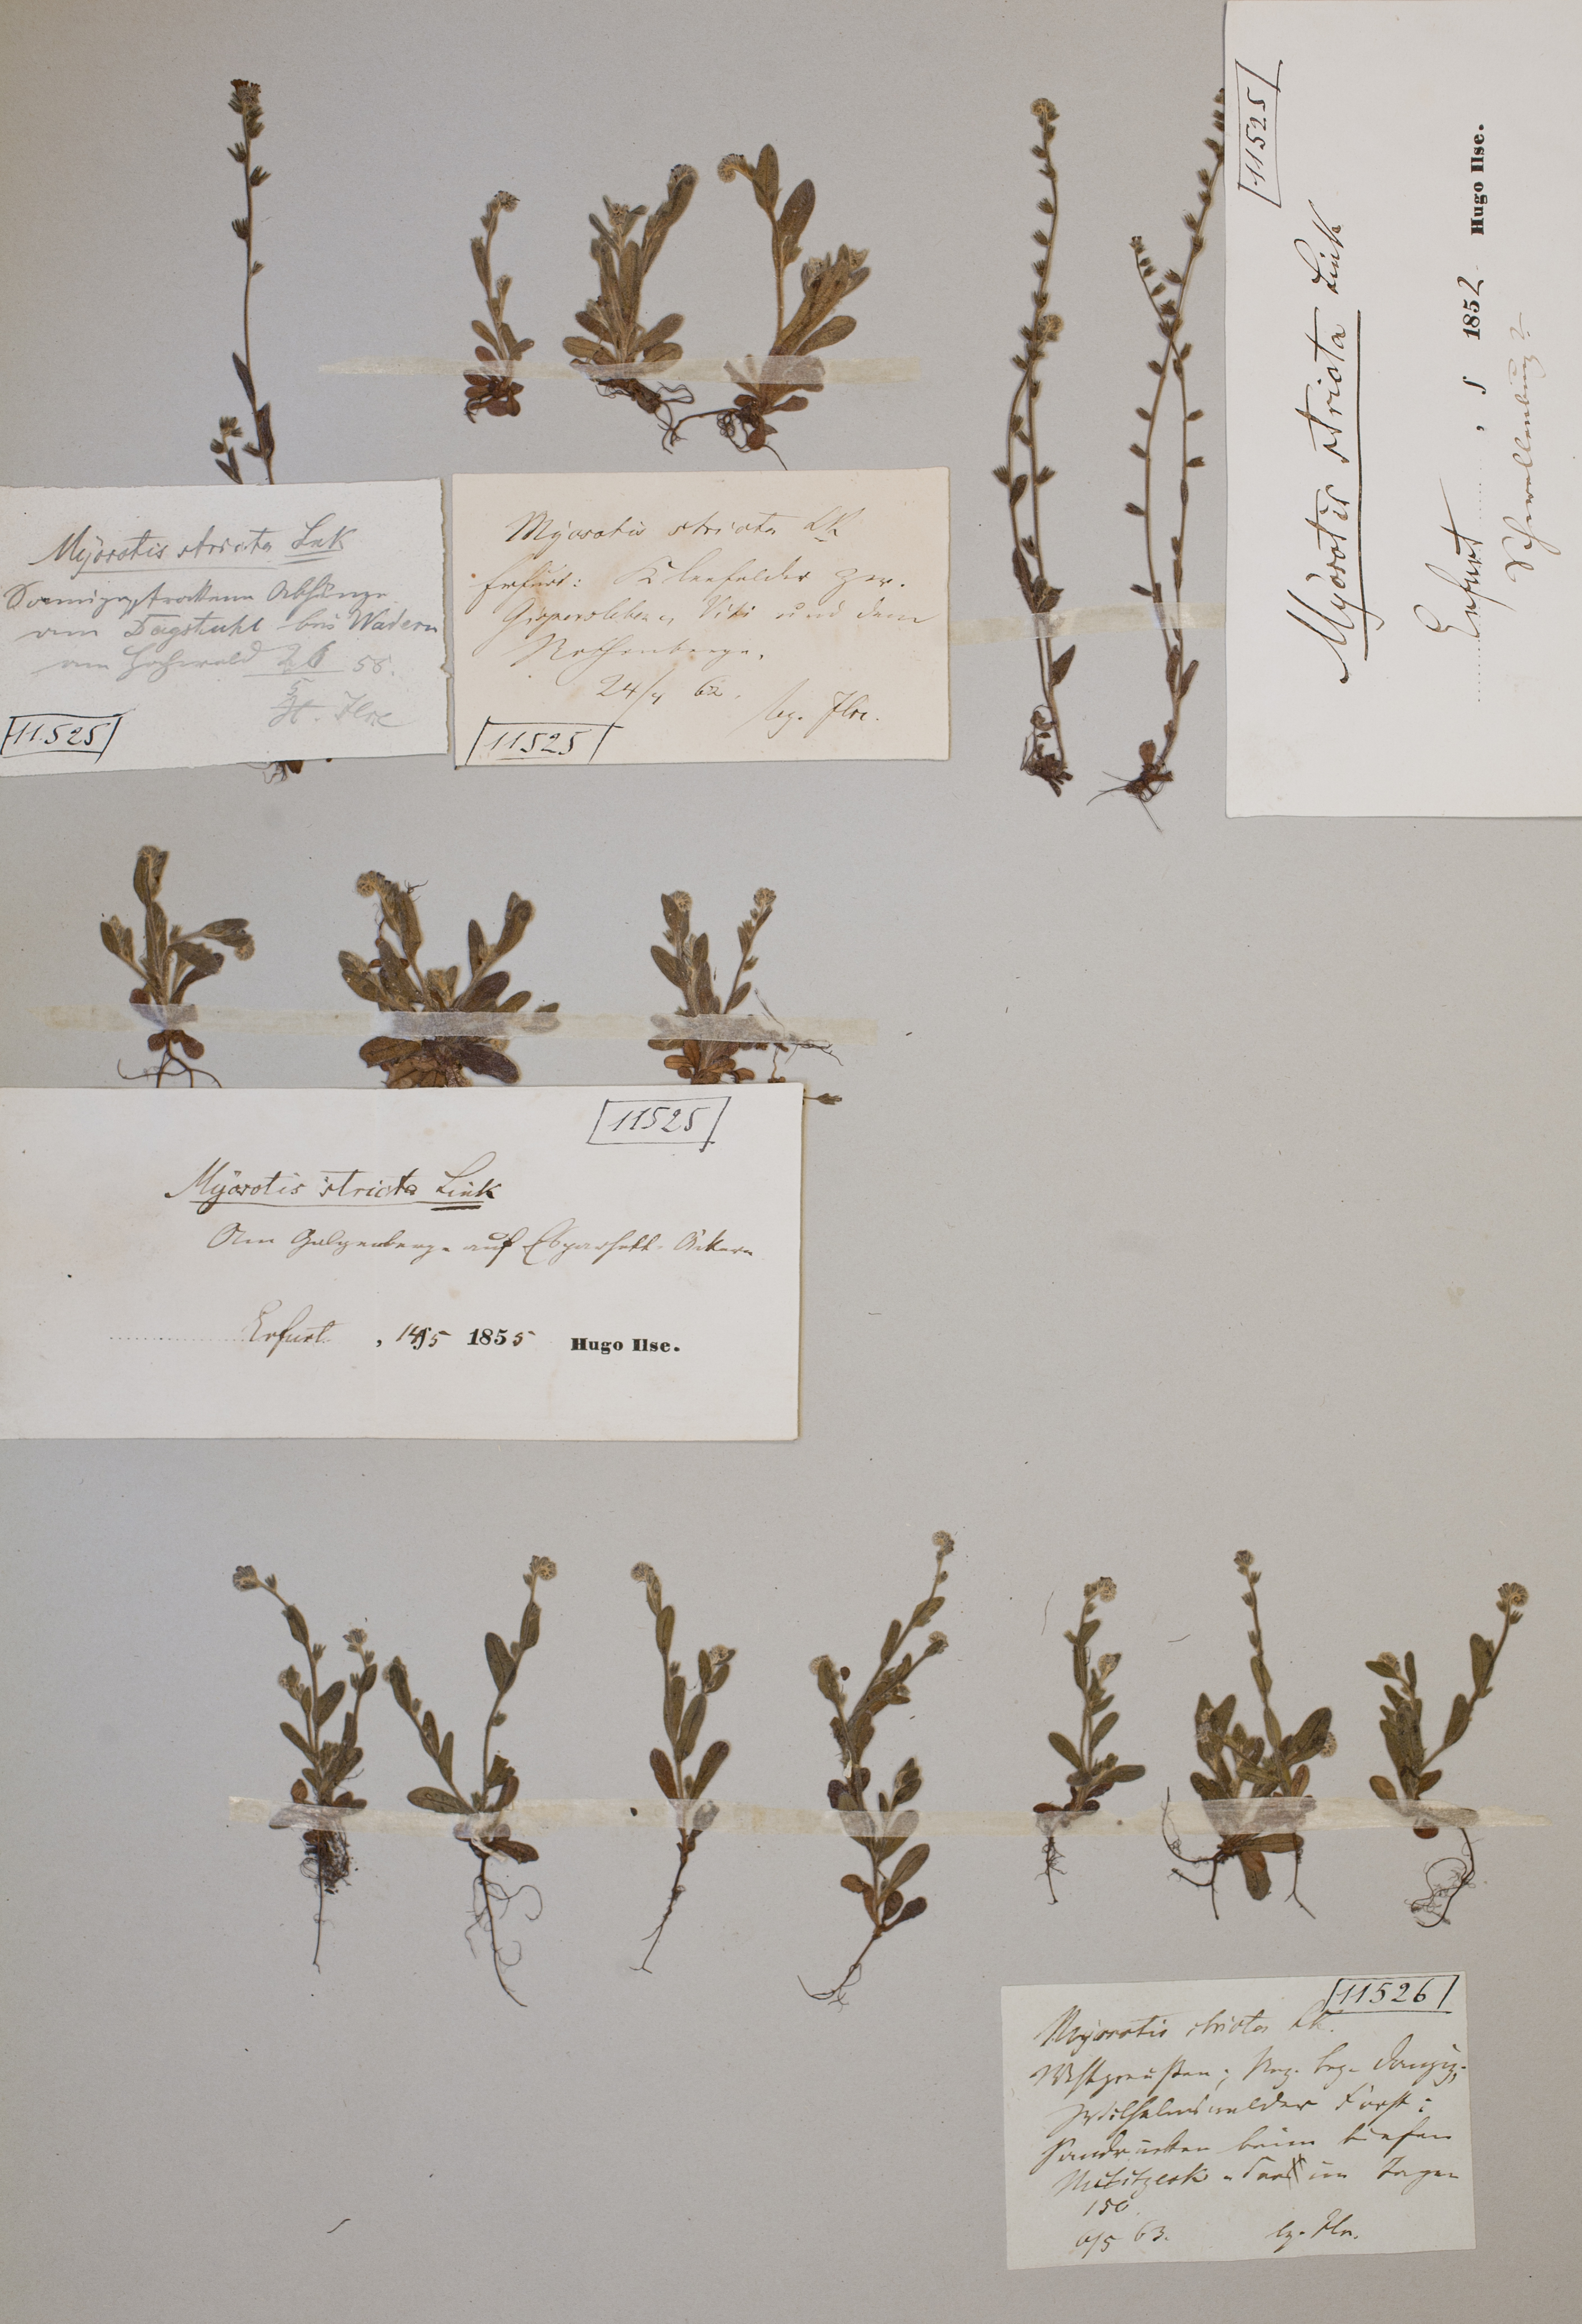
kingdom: Plantae
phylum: Tracheophyta
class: Magnoliopsida
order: Boraginales
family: Boraginaceae
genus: Myosotis
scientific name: Myosotis stricta
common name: Strict forget-me-not
